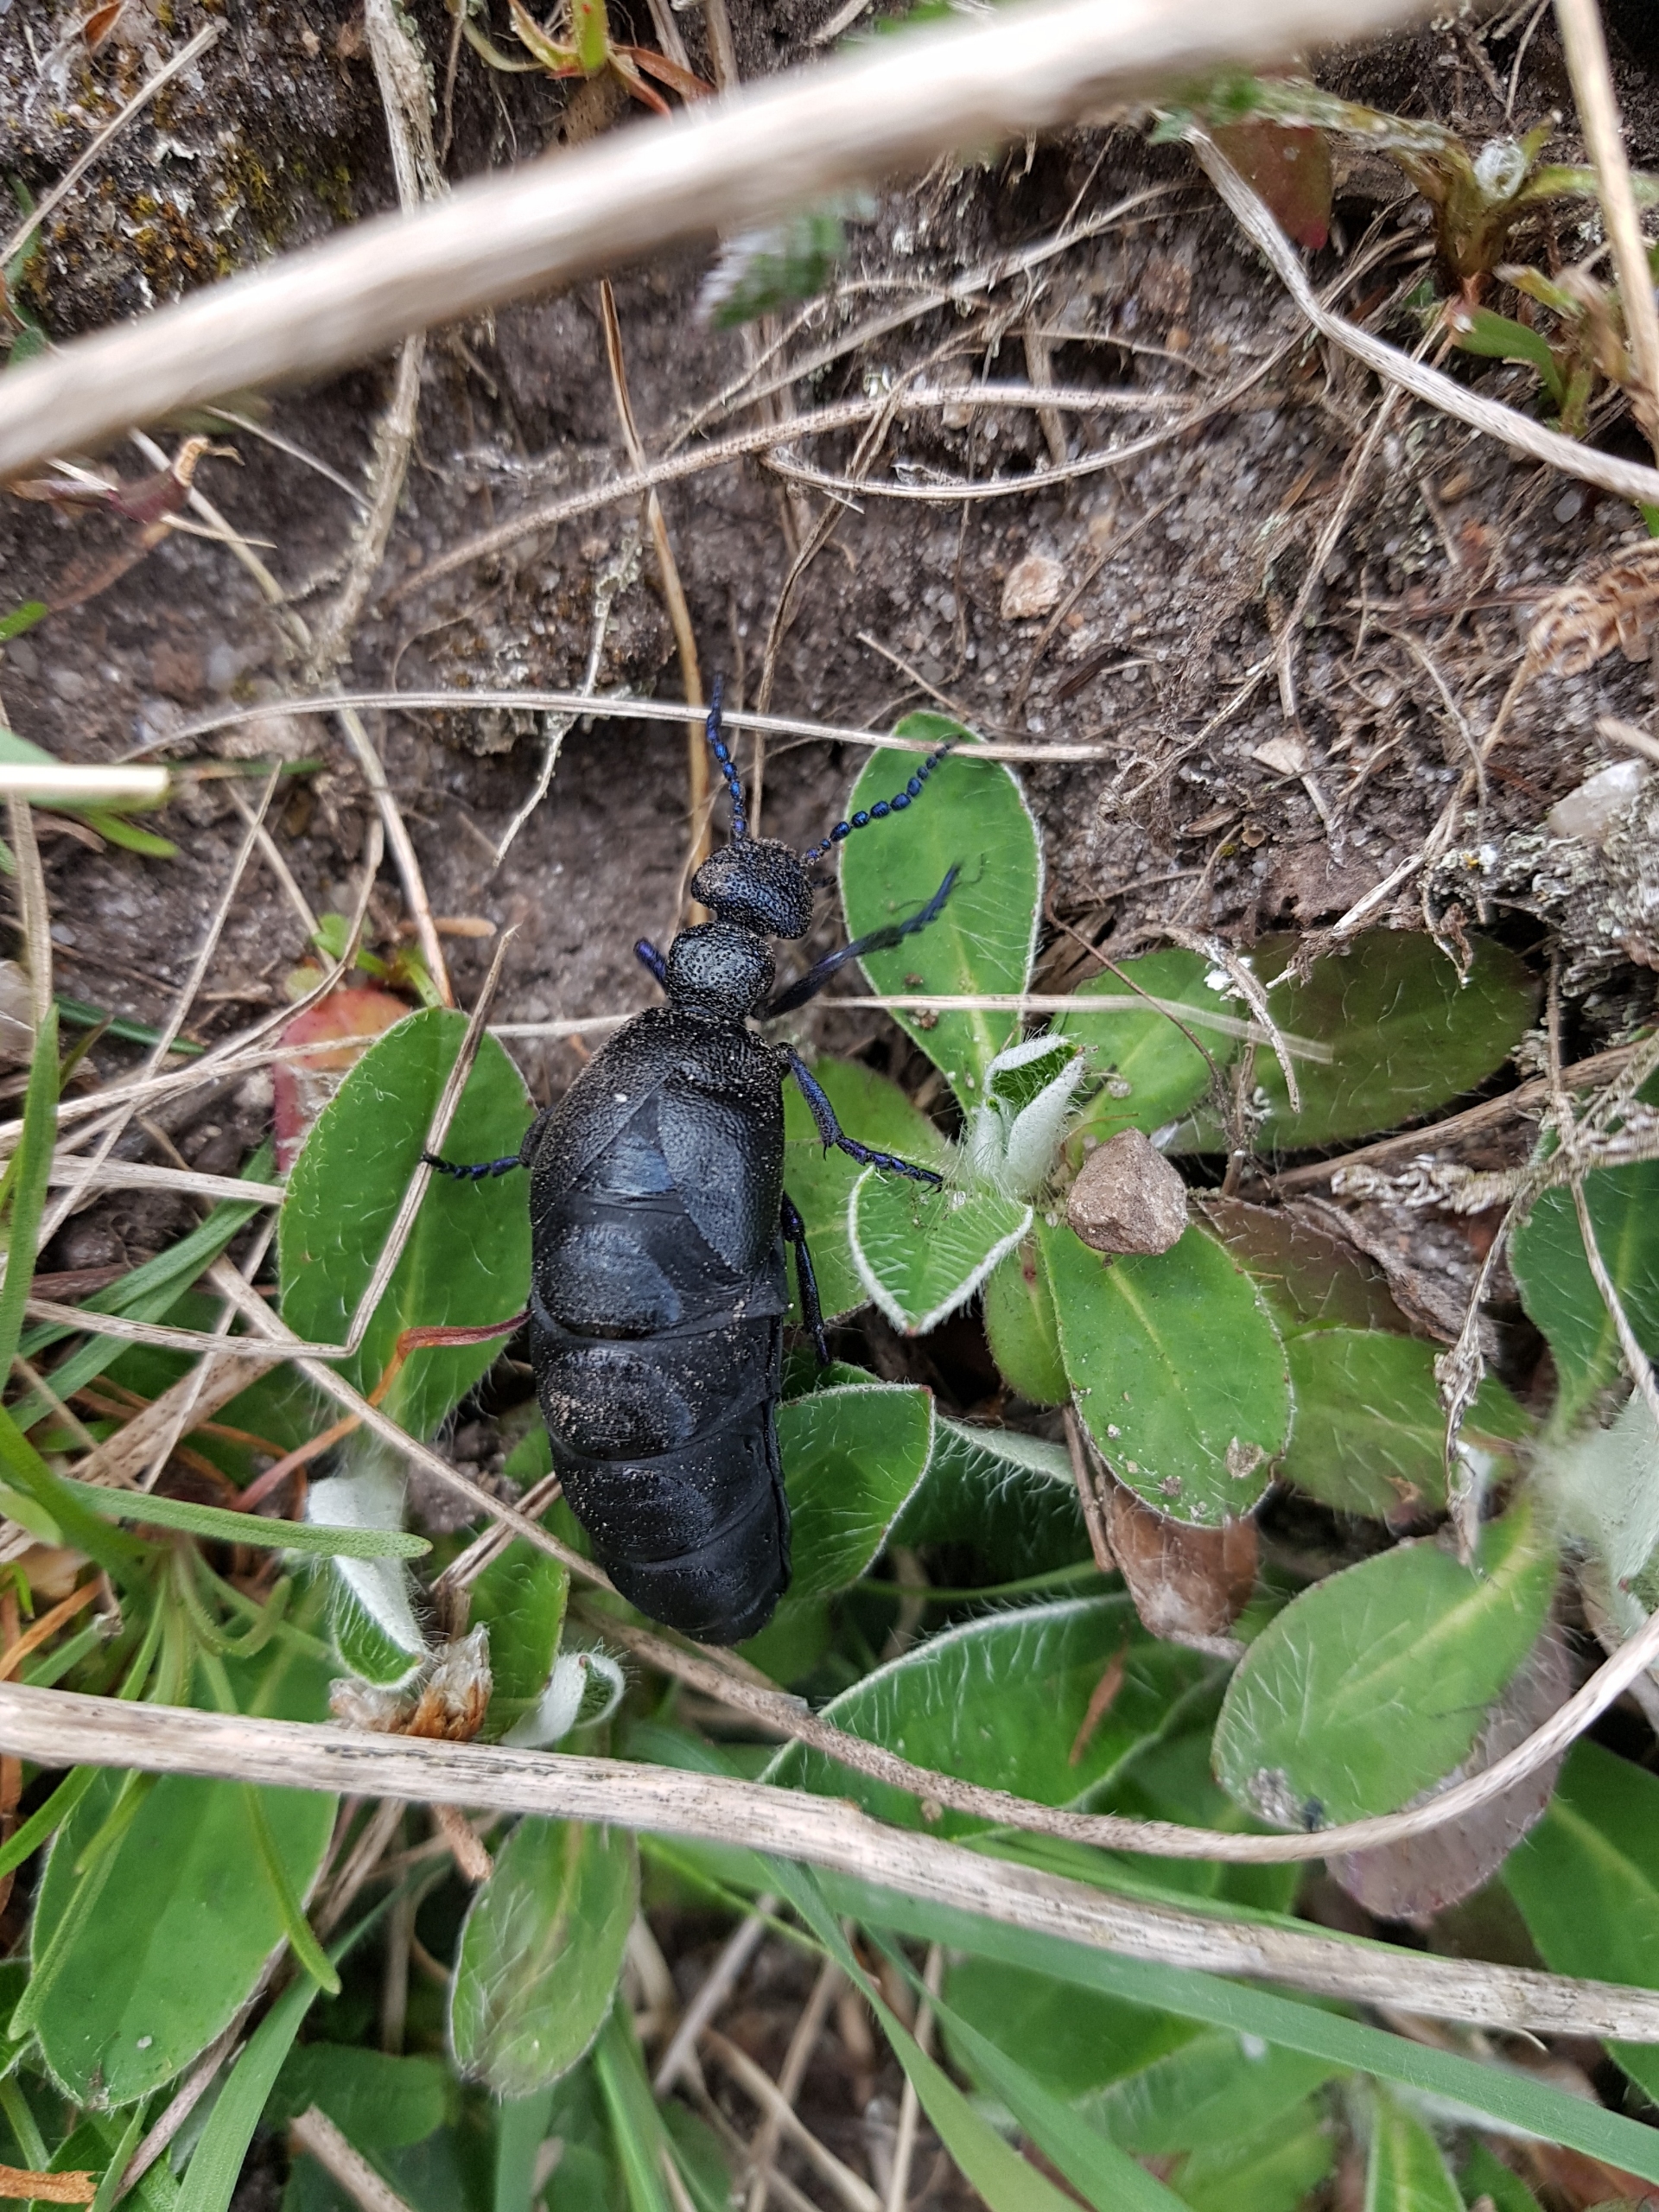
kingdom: Animalia
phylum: Arthropoda
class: Insecta
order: Coleoptera
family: Meloidae
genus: Meloe
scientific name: Meloe proscarabaeus
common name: Sort oliebille
